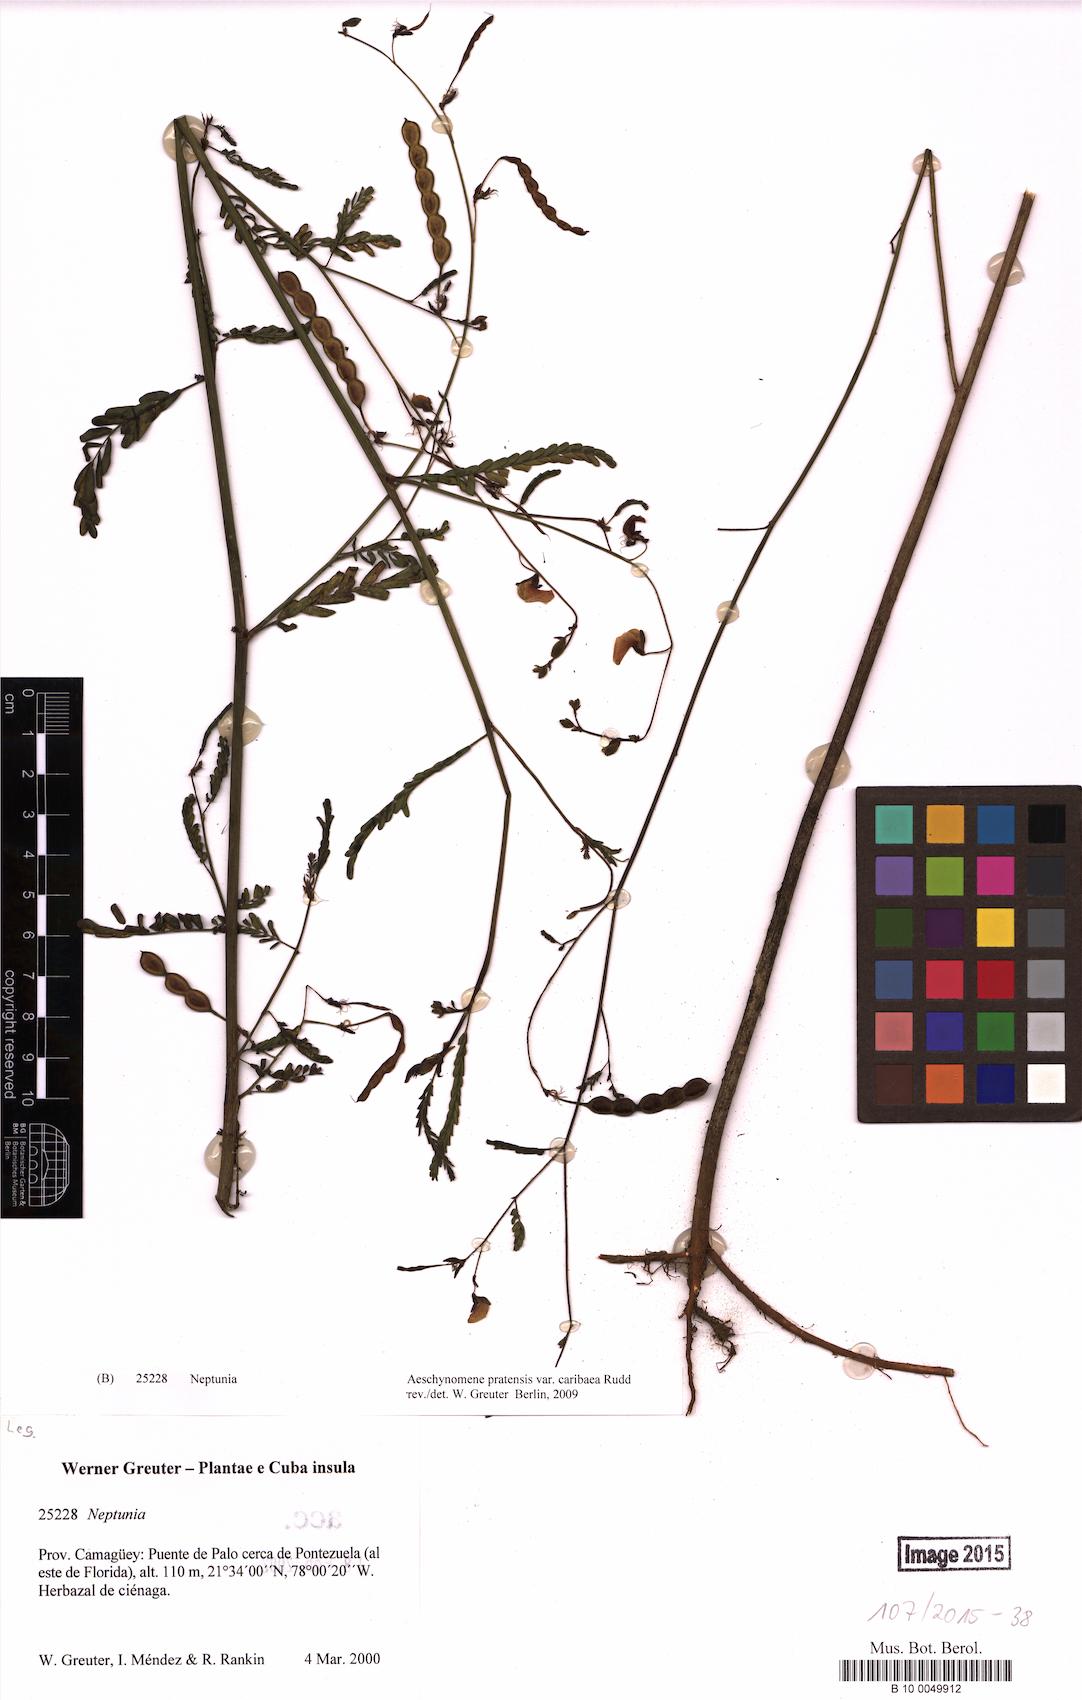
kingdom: Plantae
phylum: Tracheophyta
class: Magnoliopsida
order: Fabales
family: Fabaceae
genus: Aeschynomene
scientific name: Aeschynomene pratensis
